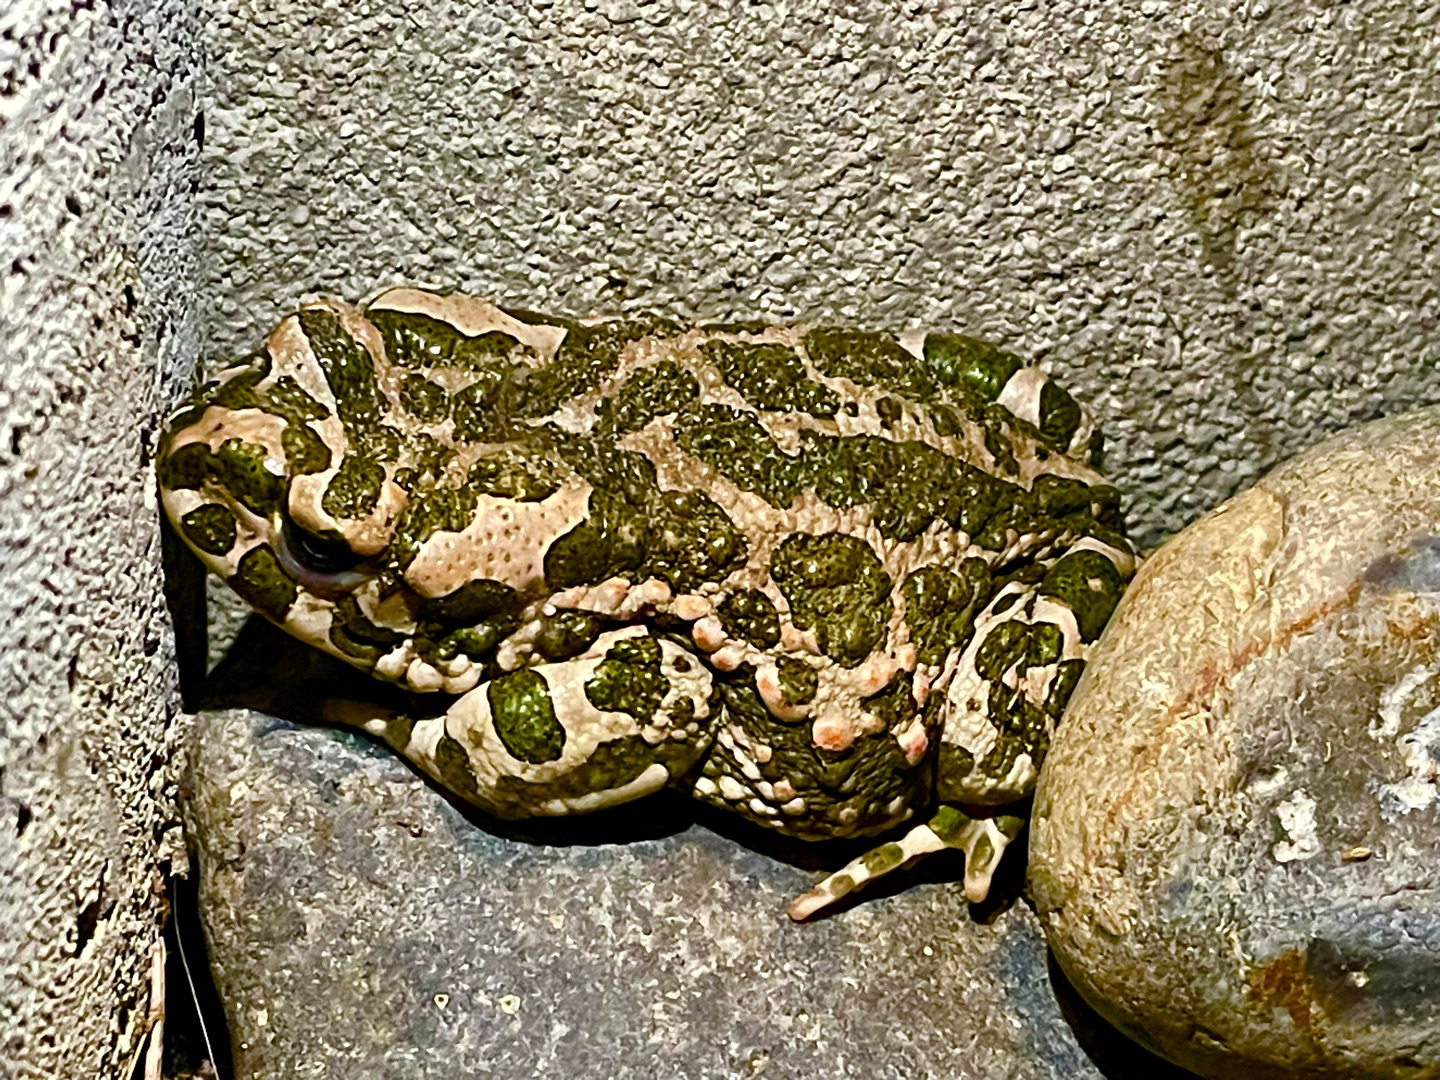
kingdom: Animalia
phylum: Chordata
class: Amphibia
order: Anura
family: Bufonidae
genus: Bufotes
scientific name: Bufotes viridis
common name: Grønbroget tudse
